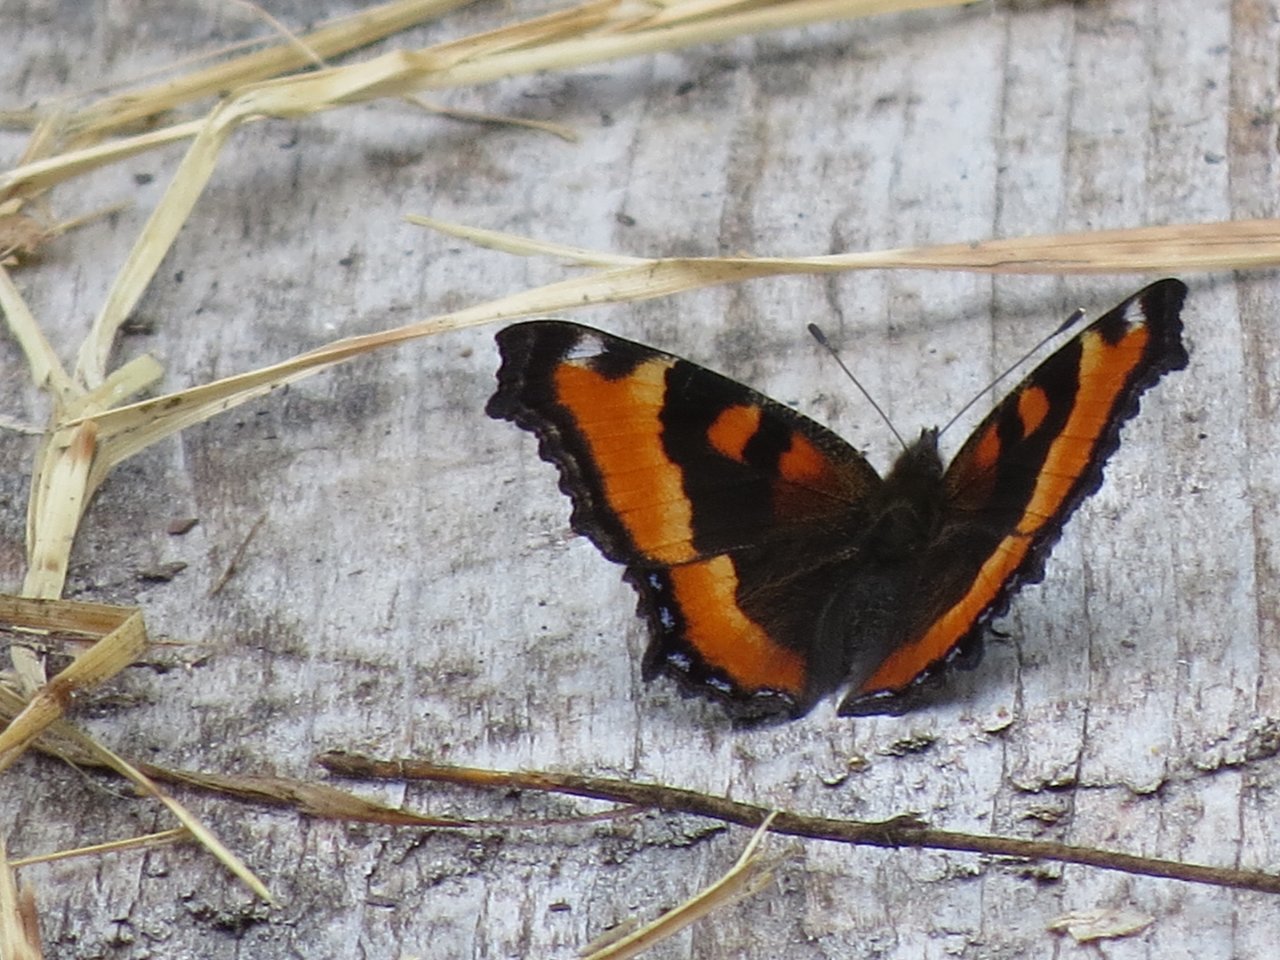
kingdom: Animalia
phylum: Arthropoda
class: Insecta
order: Lepidoptera
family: Nymphalidae
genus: Aglais
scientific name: Aglais milberti
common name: Milbert's Tortoiseshell
